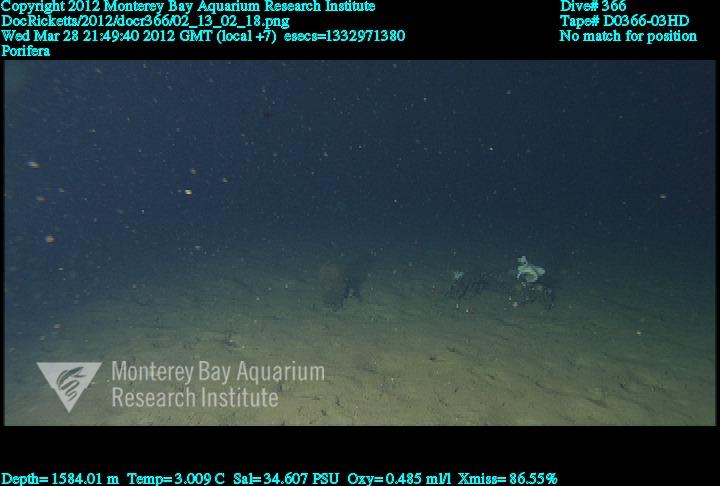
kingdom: Animalia
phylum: Porifera
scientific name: Porifera
